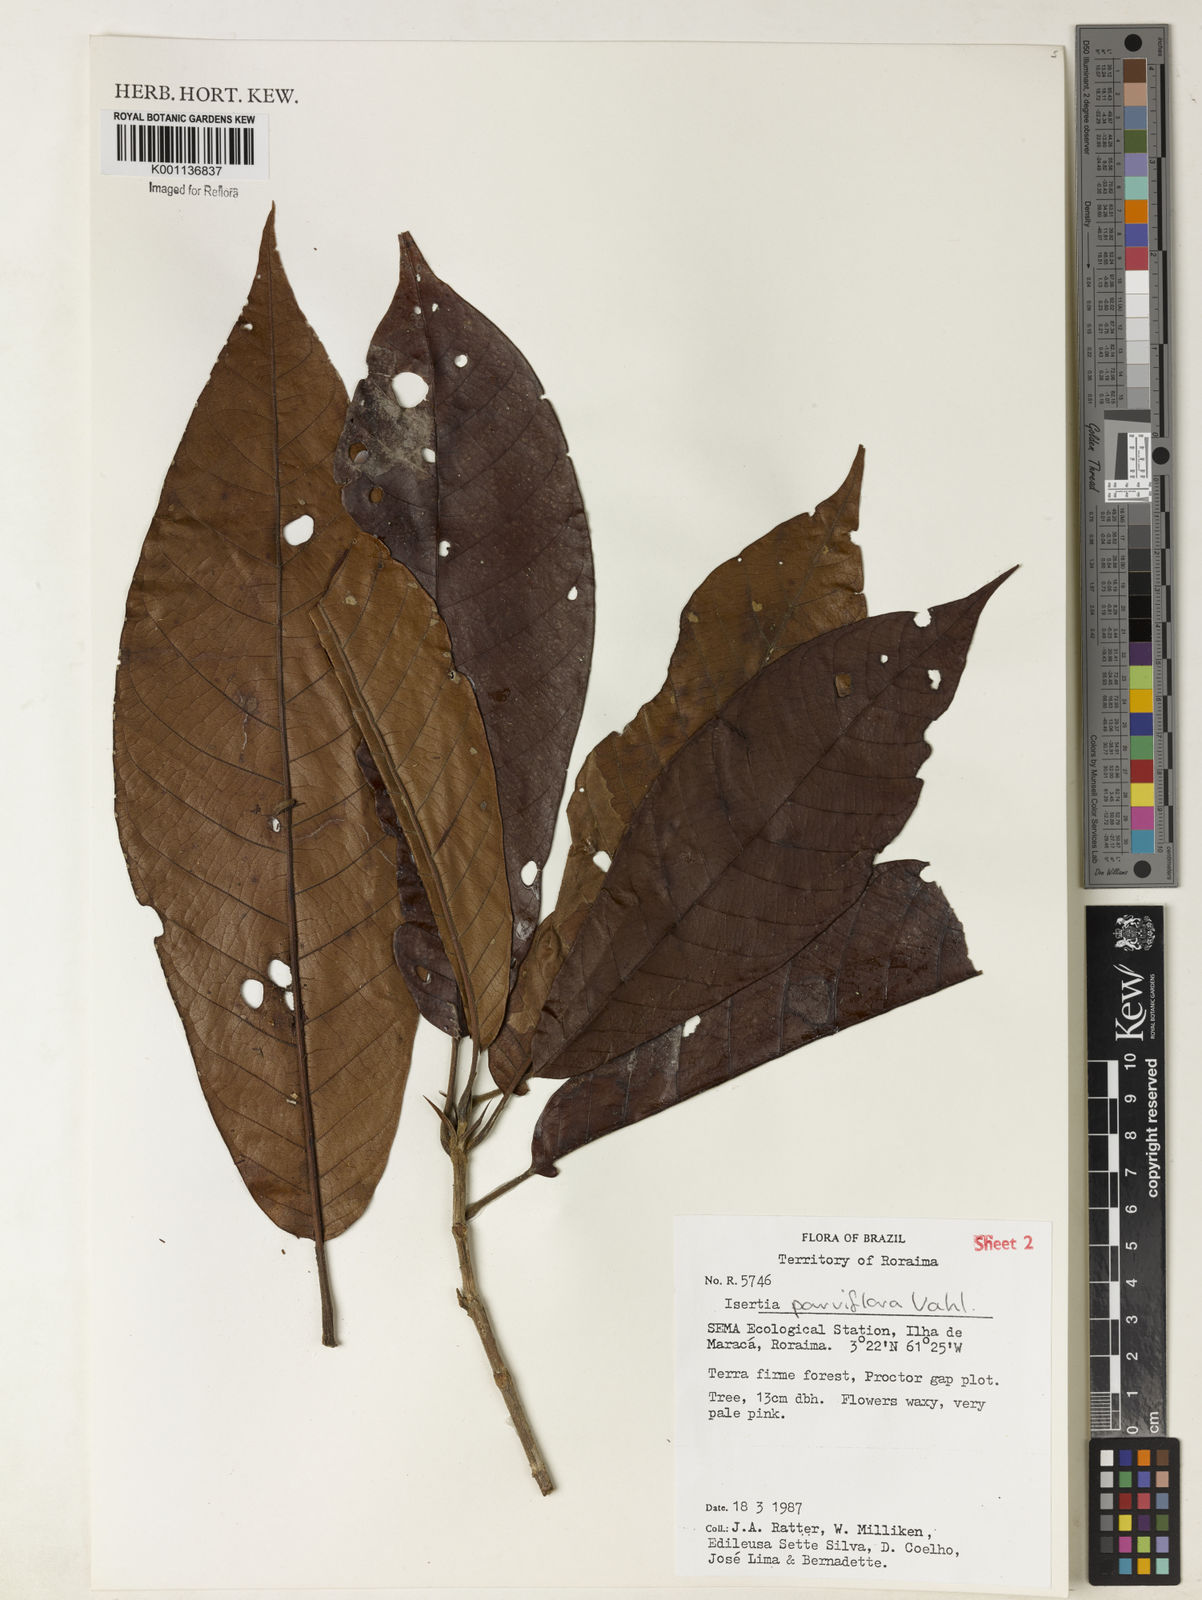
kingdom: Plantae
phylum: Tracheophyta
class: Magnoliopsida
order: Gentianales
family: Rubiaceae
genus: Isertia
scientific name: Isertia parviflora
